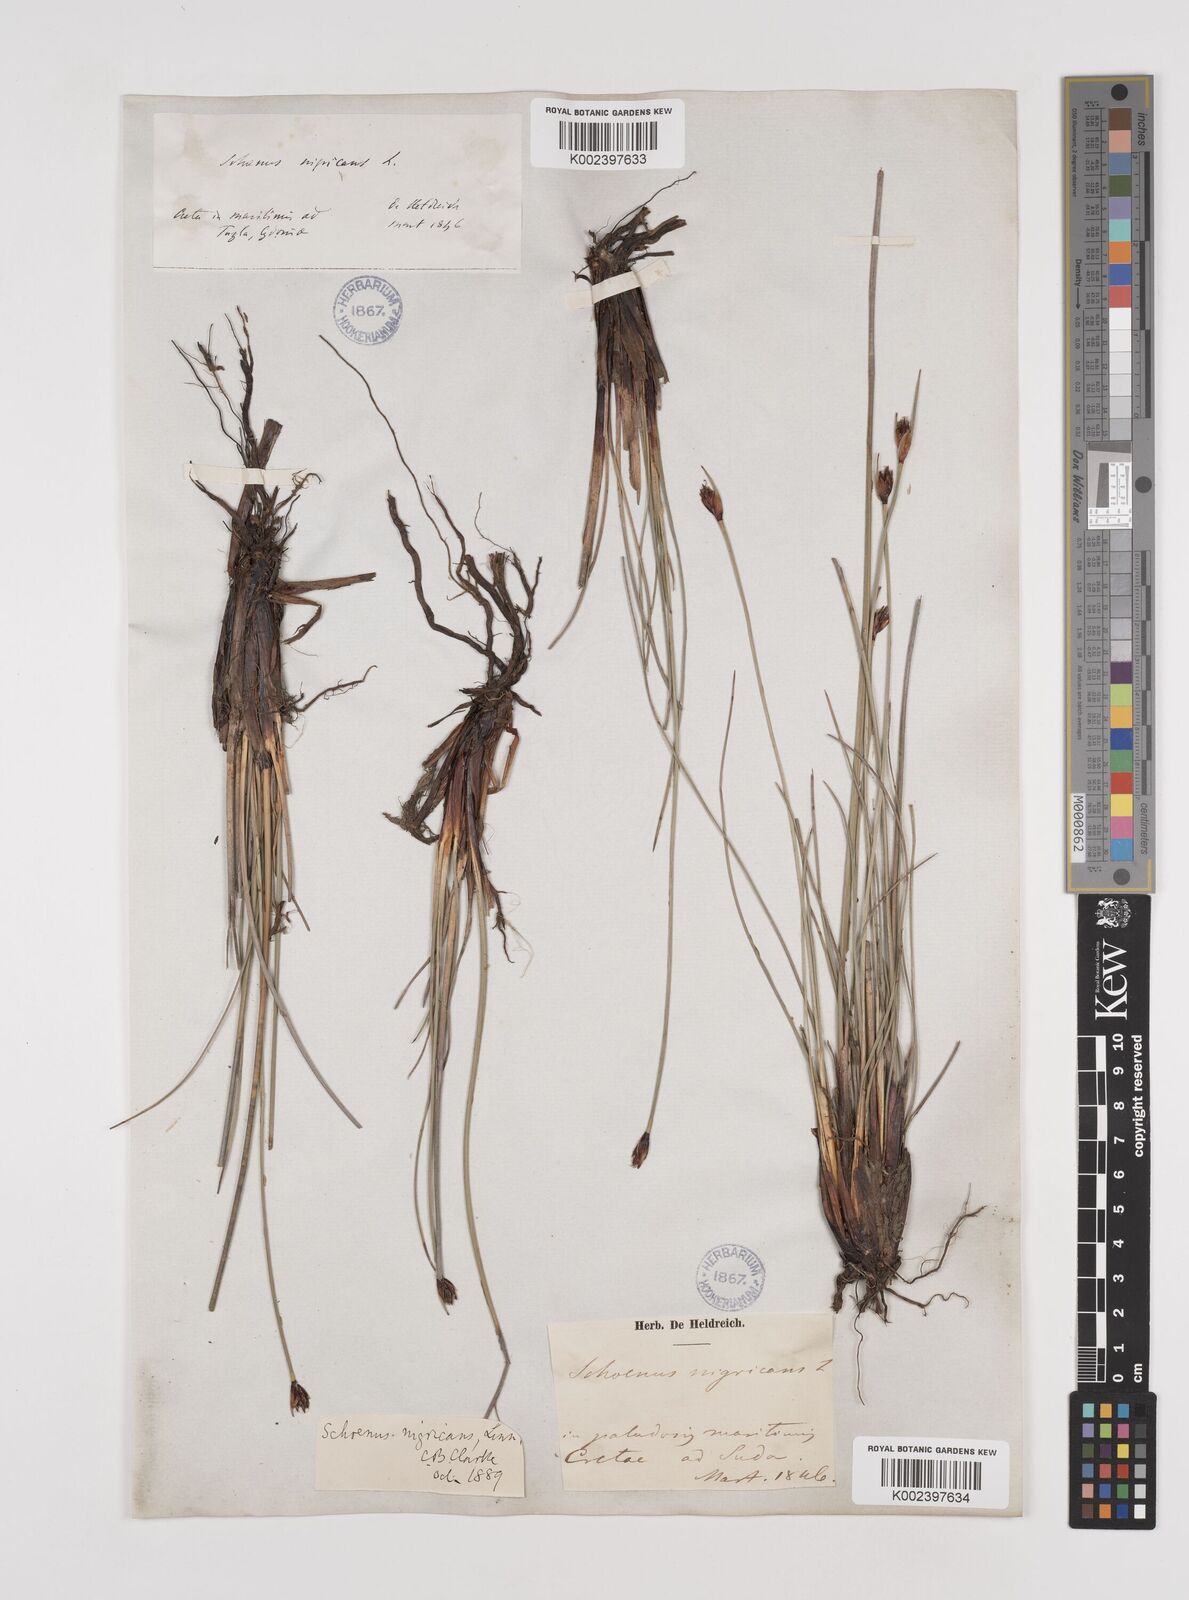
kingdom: Plantae
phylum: Tracheophyta
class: Liliopsida
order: Poales
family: Cyperaceae
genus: Schoenus
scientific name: Schoenus nigricans
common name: Black bog-rush
